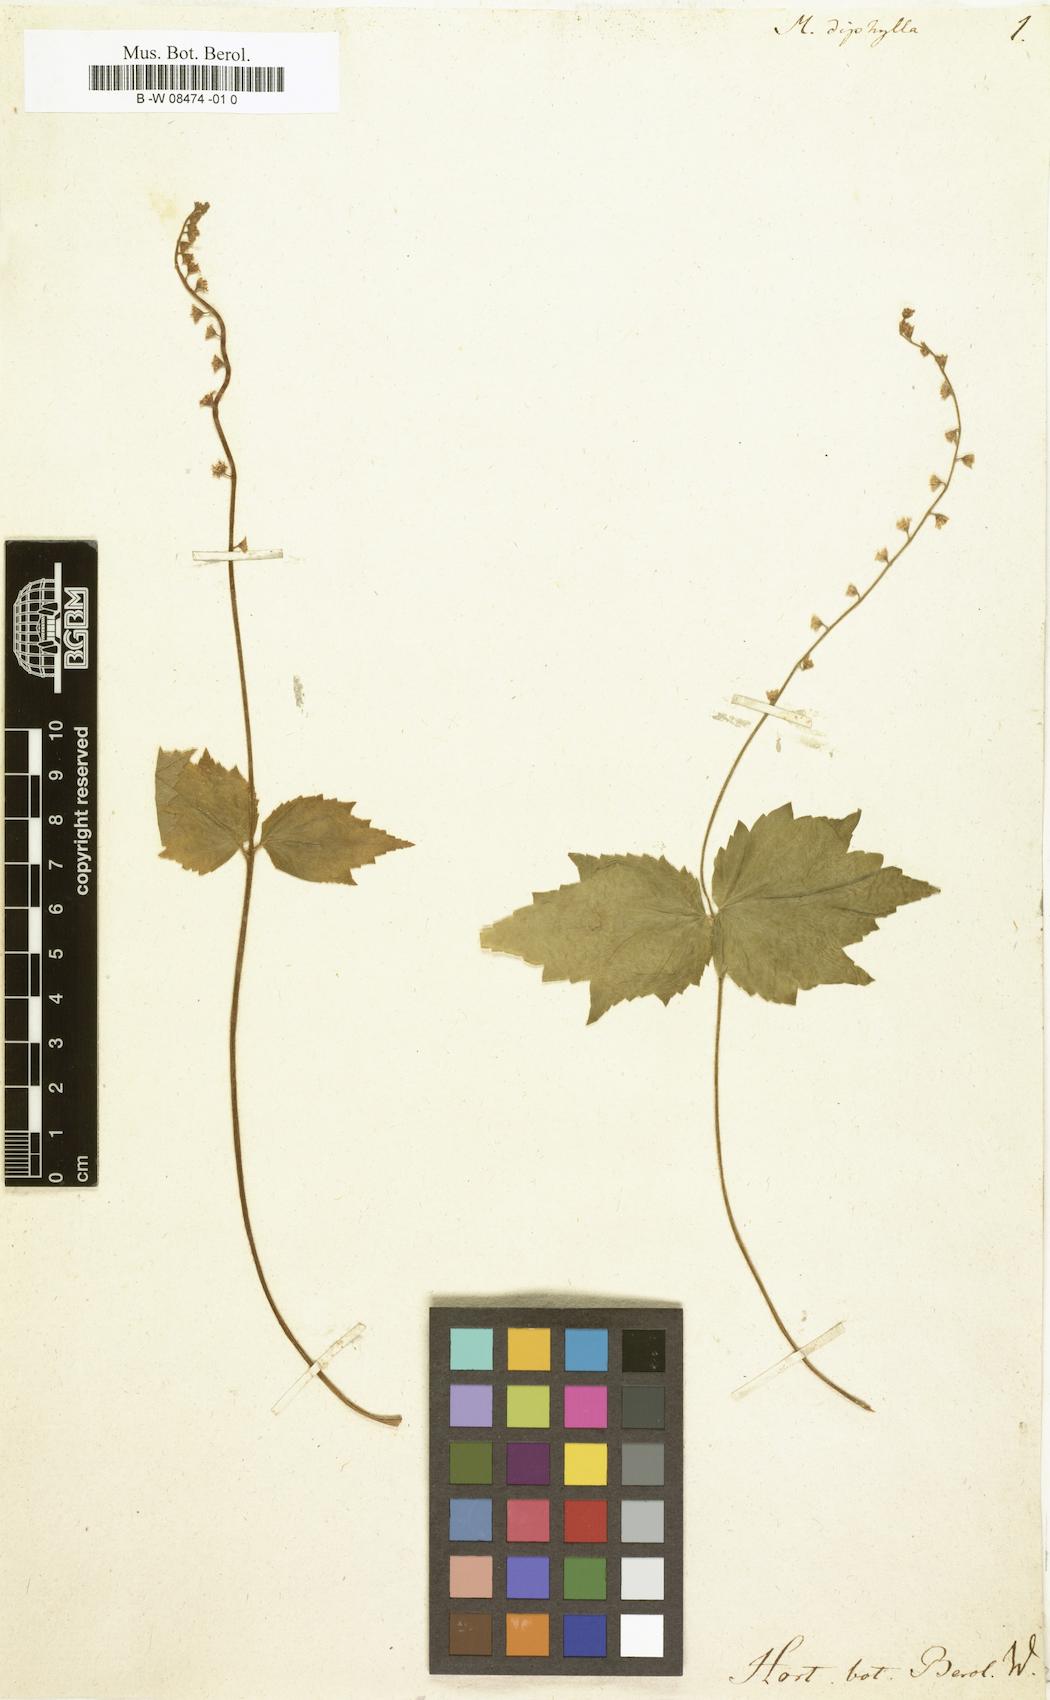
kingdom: Plantae
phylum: Tracheophyta
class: Magnoliopsida
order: Saxifragales
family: Saxifragaceae
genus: Mitella
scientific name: Mitella diphylla
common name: Coolwort
